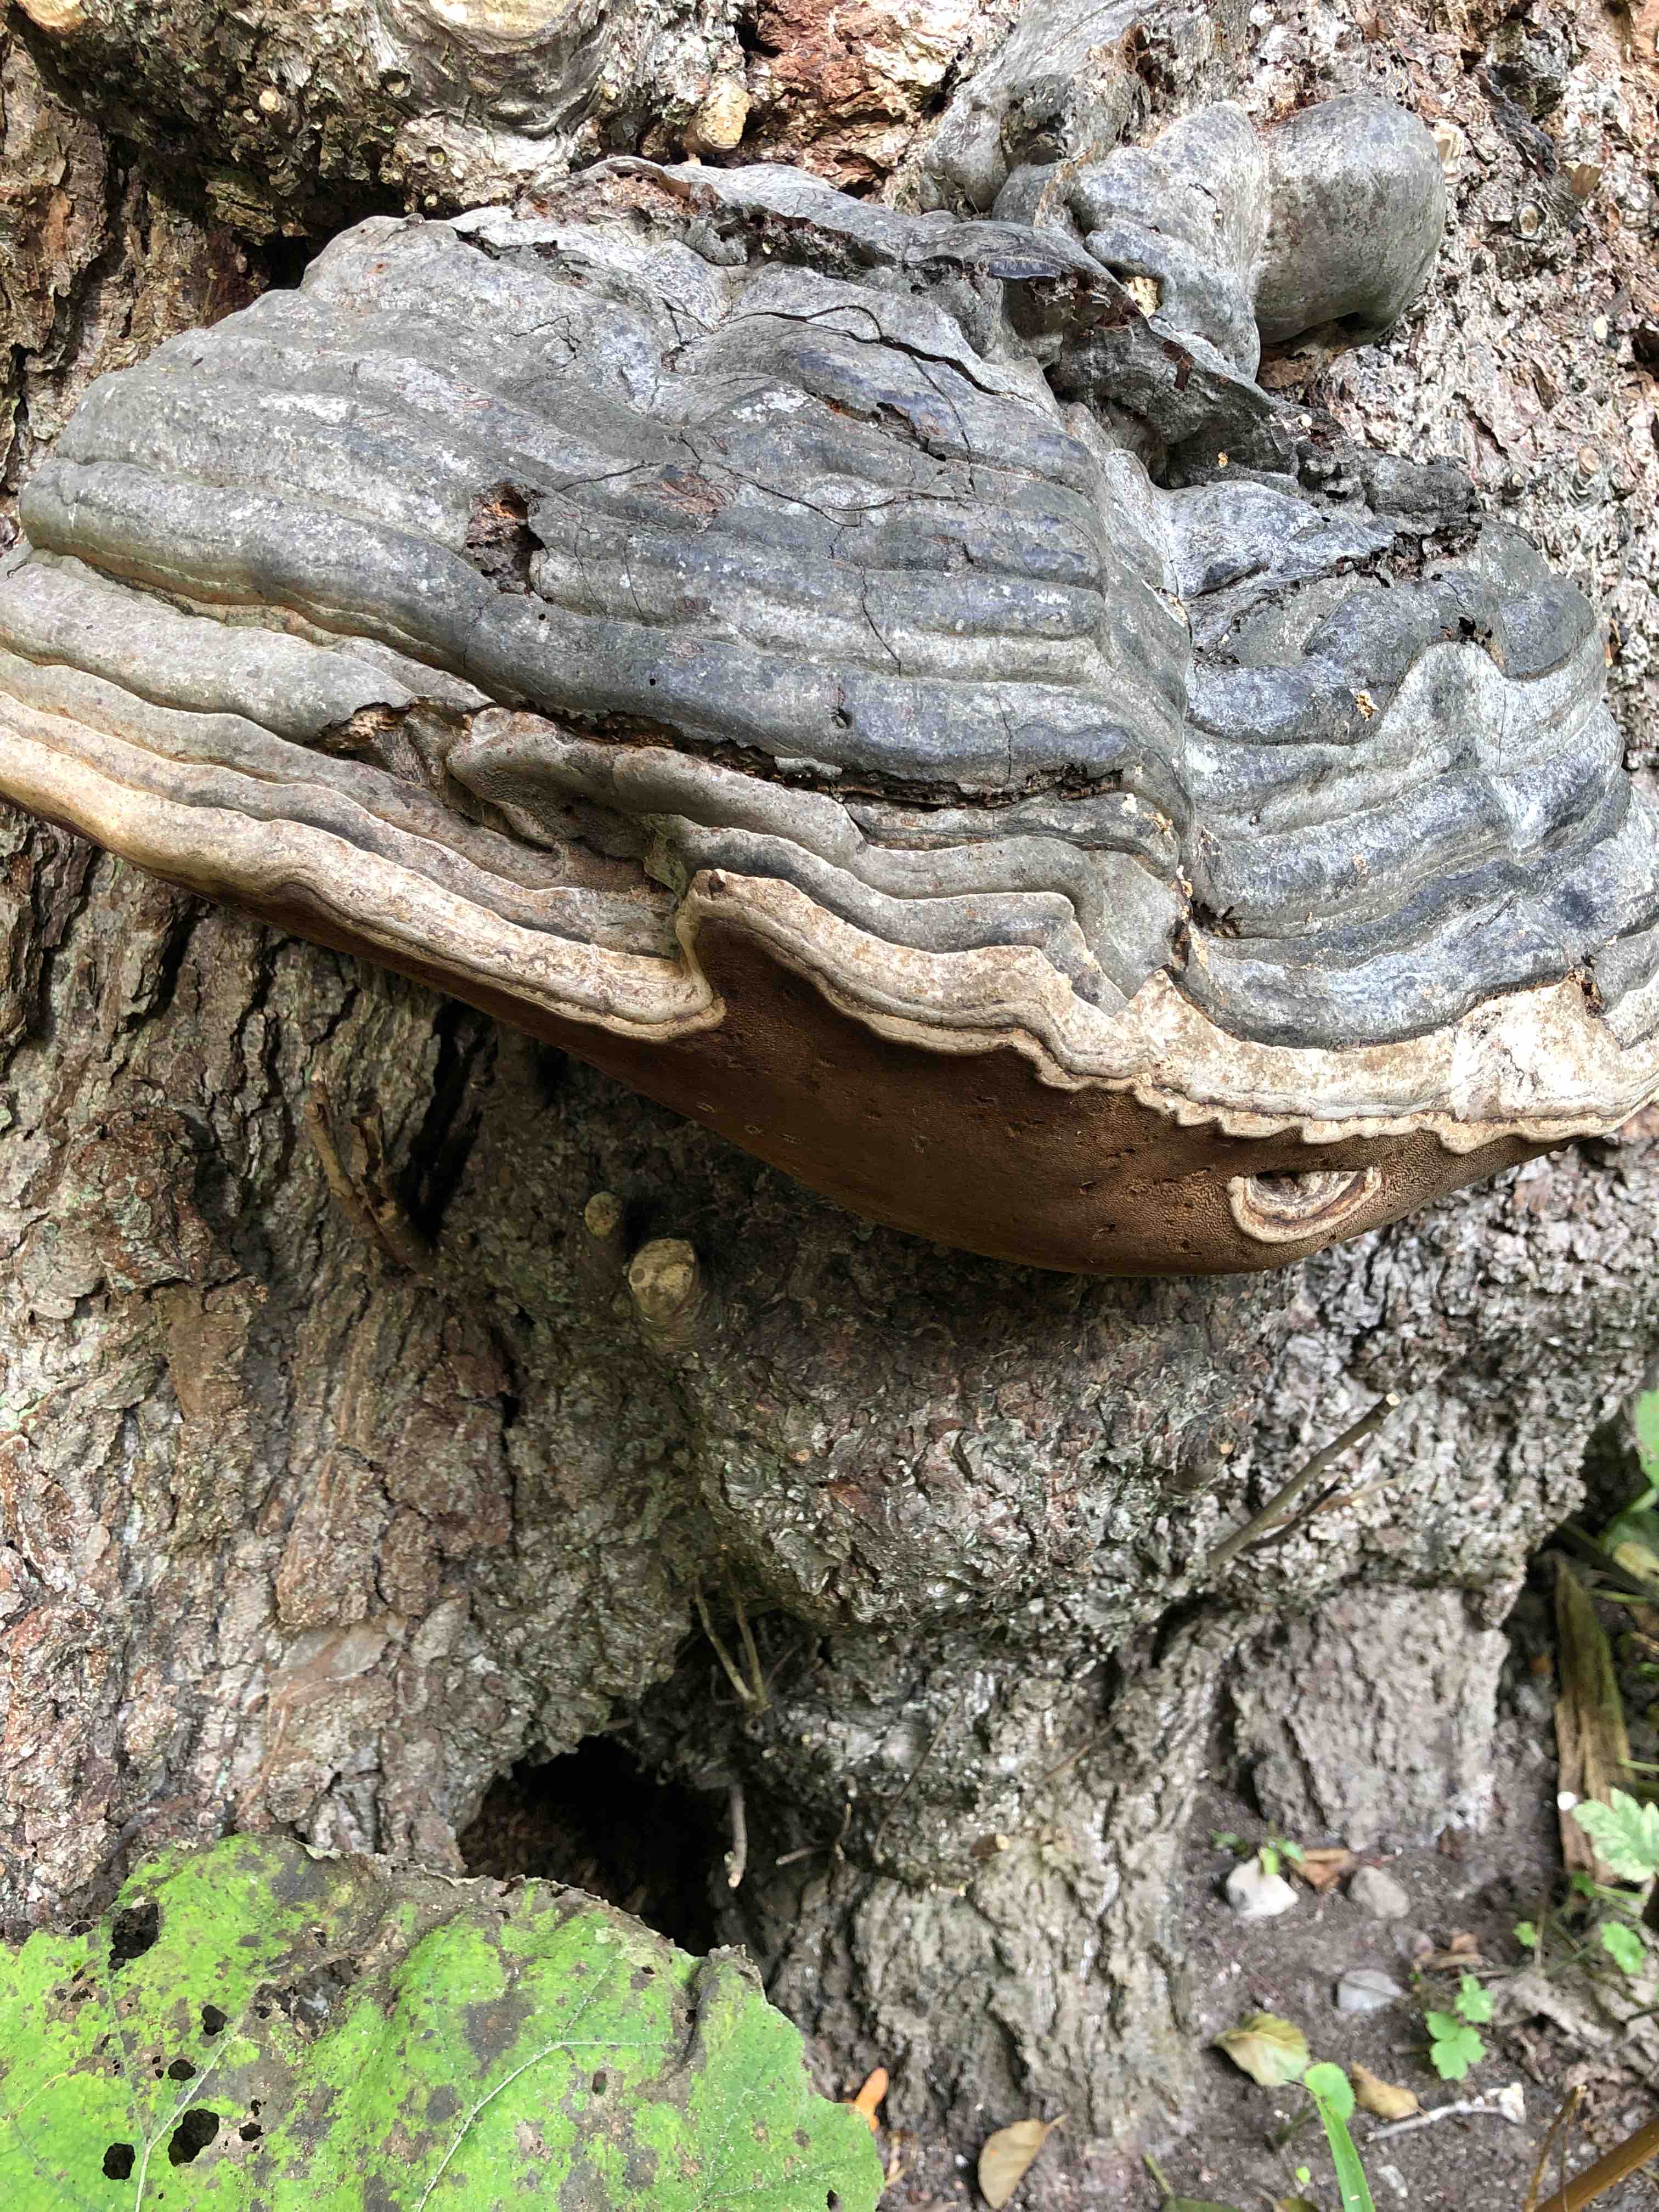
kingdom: Fungi
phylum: Basidiomycota
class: Agaricomycetes
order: Polyporales
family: Polyporaceae
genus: Fomes
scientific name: Fomes fomentarius
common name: tøndersvamp
